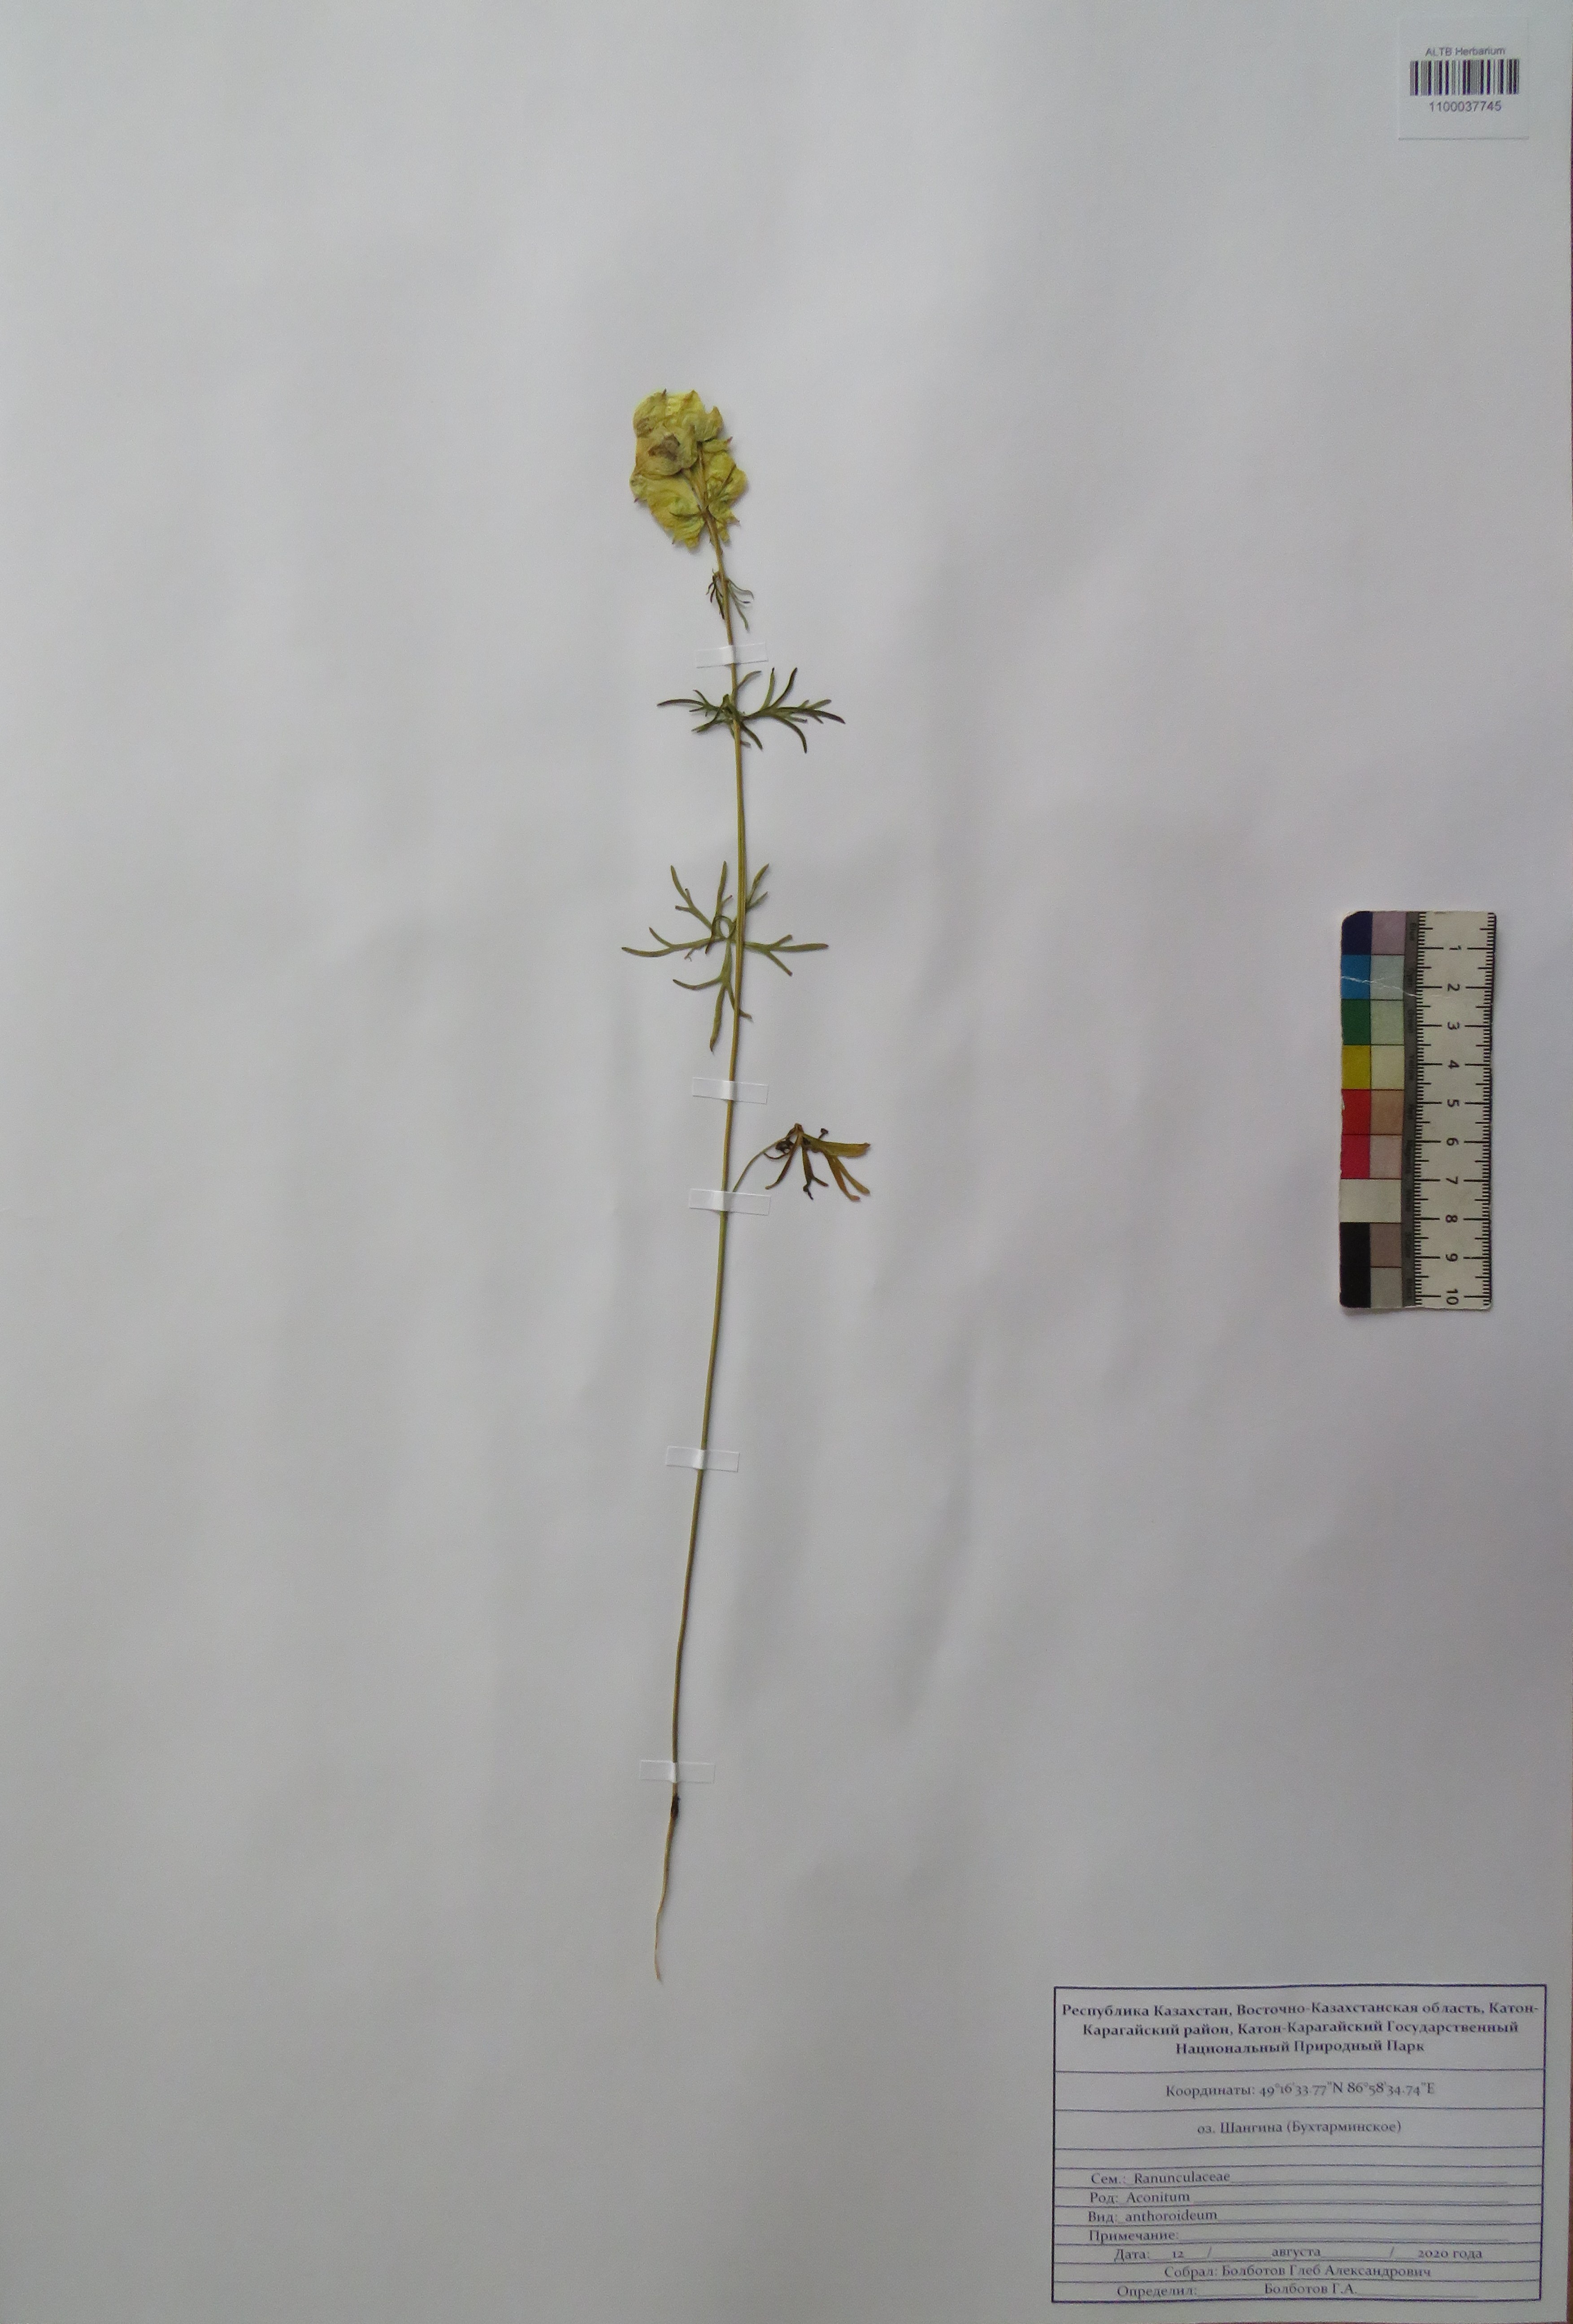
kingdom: Plantae
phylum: Tracheophyta
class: Magnoliopsida
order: Ranunculales
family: Ranunculaceae
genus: Aconitum
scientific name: Aconitum anthoroideum
